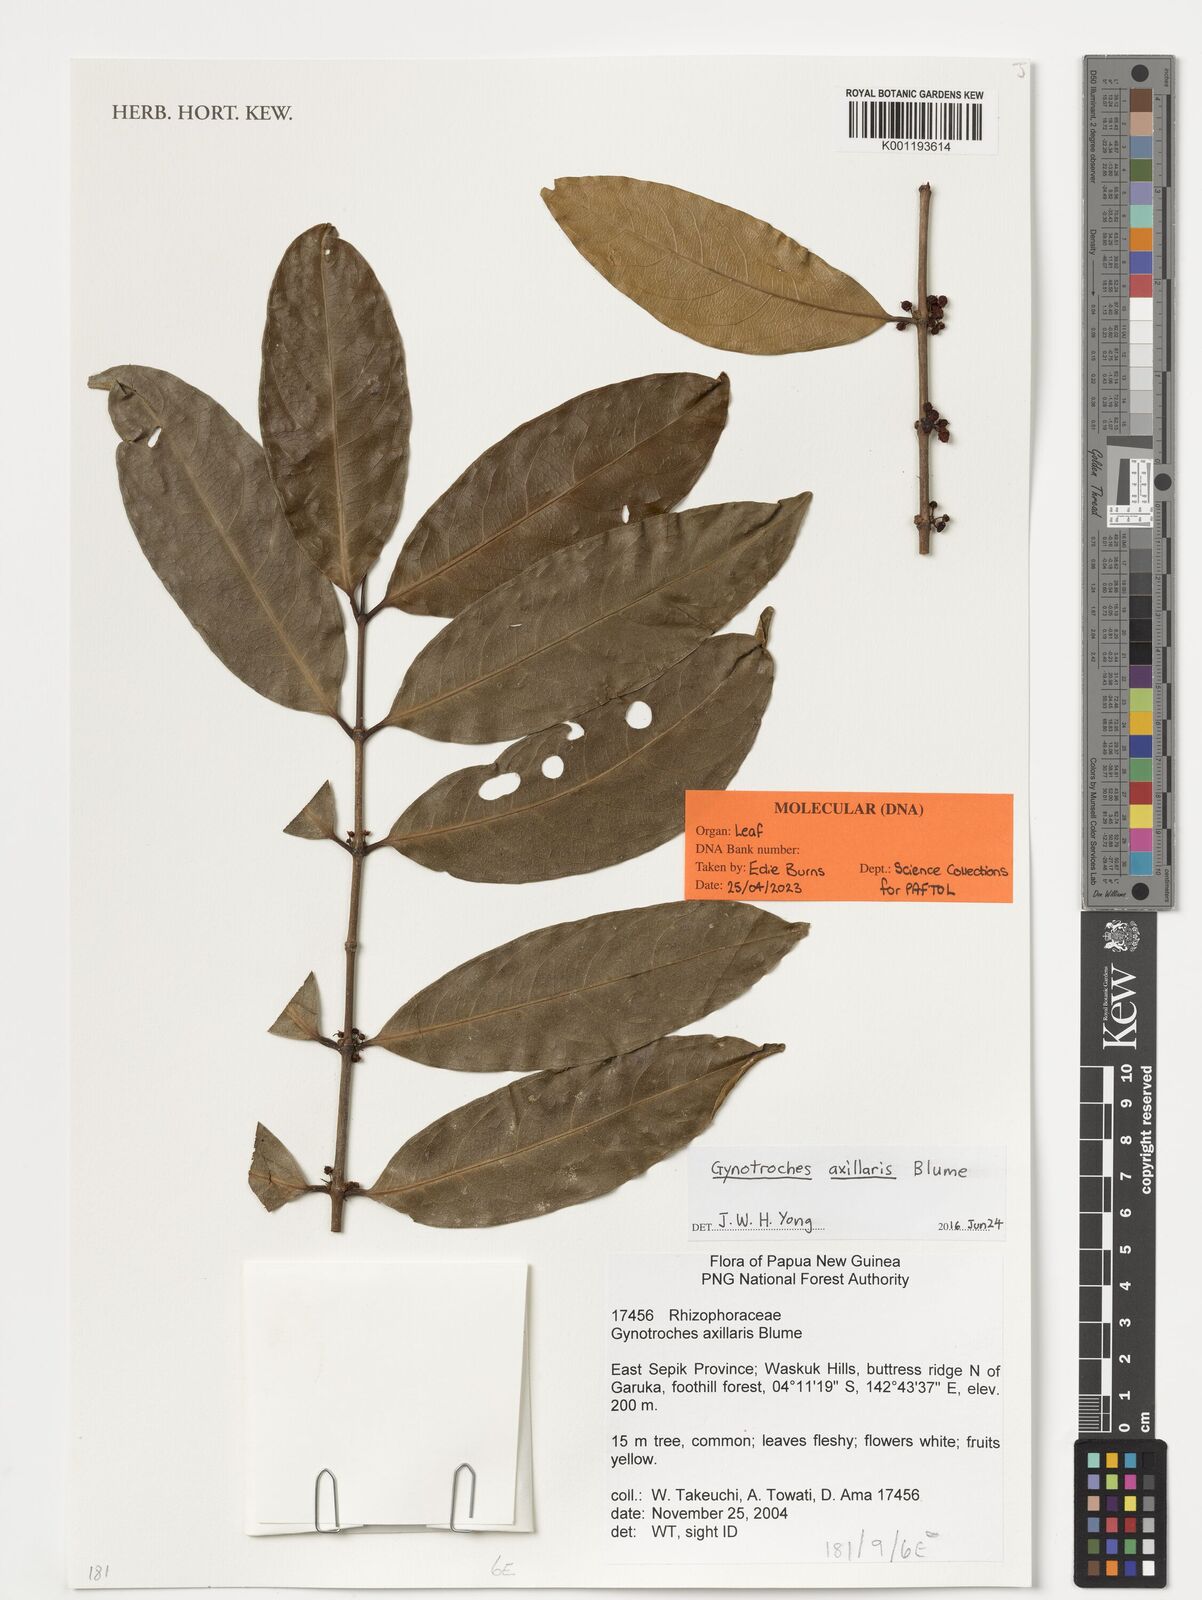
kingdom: Plantae
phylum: Tracheophyta
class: Magnoliopsida
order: Malpighiales
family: Rhizophoraceae
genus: Gynotroches
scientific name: Gynotroches axillaris
